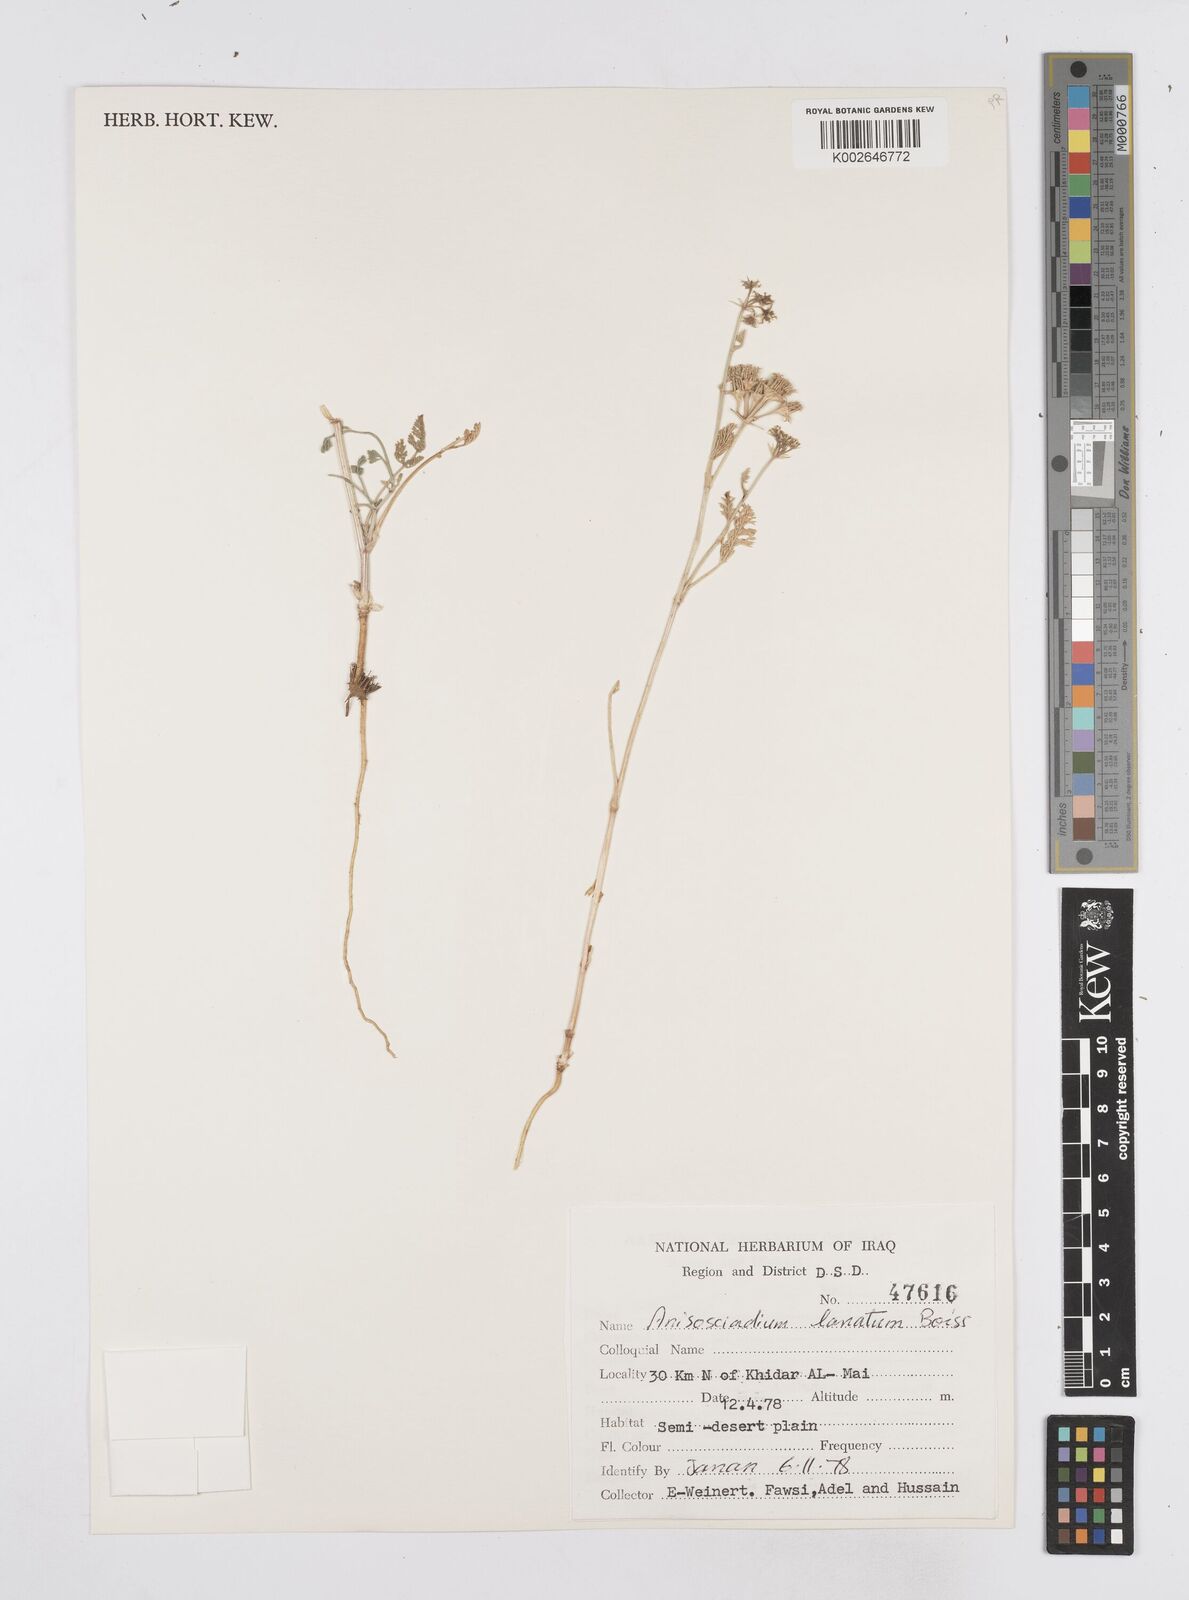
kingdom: Plantae
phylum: Tracheophyta
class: Magnoliopsida
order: Apiales
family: Apiaceae
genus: Anisosciadium
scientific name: Anisosciadium lanatum
